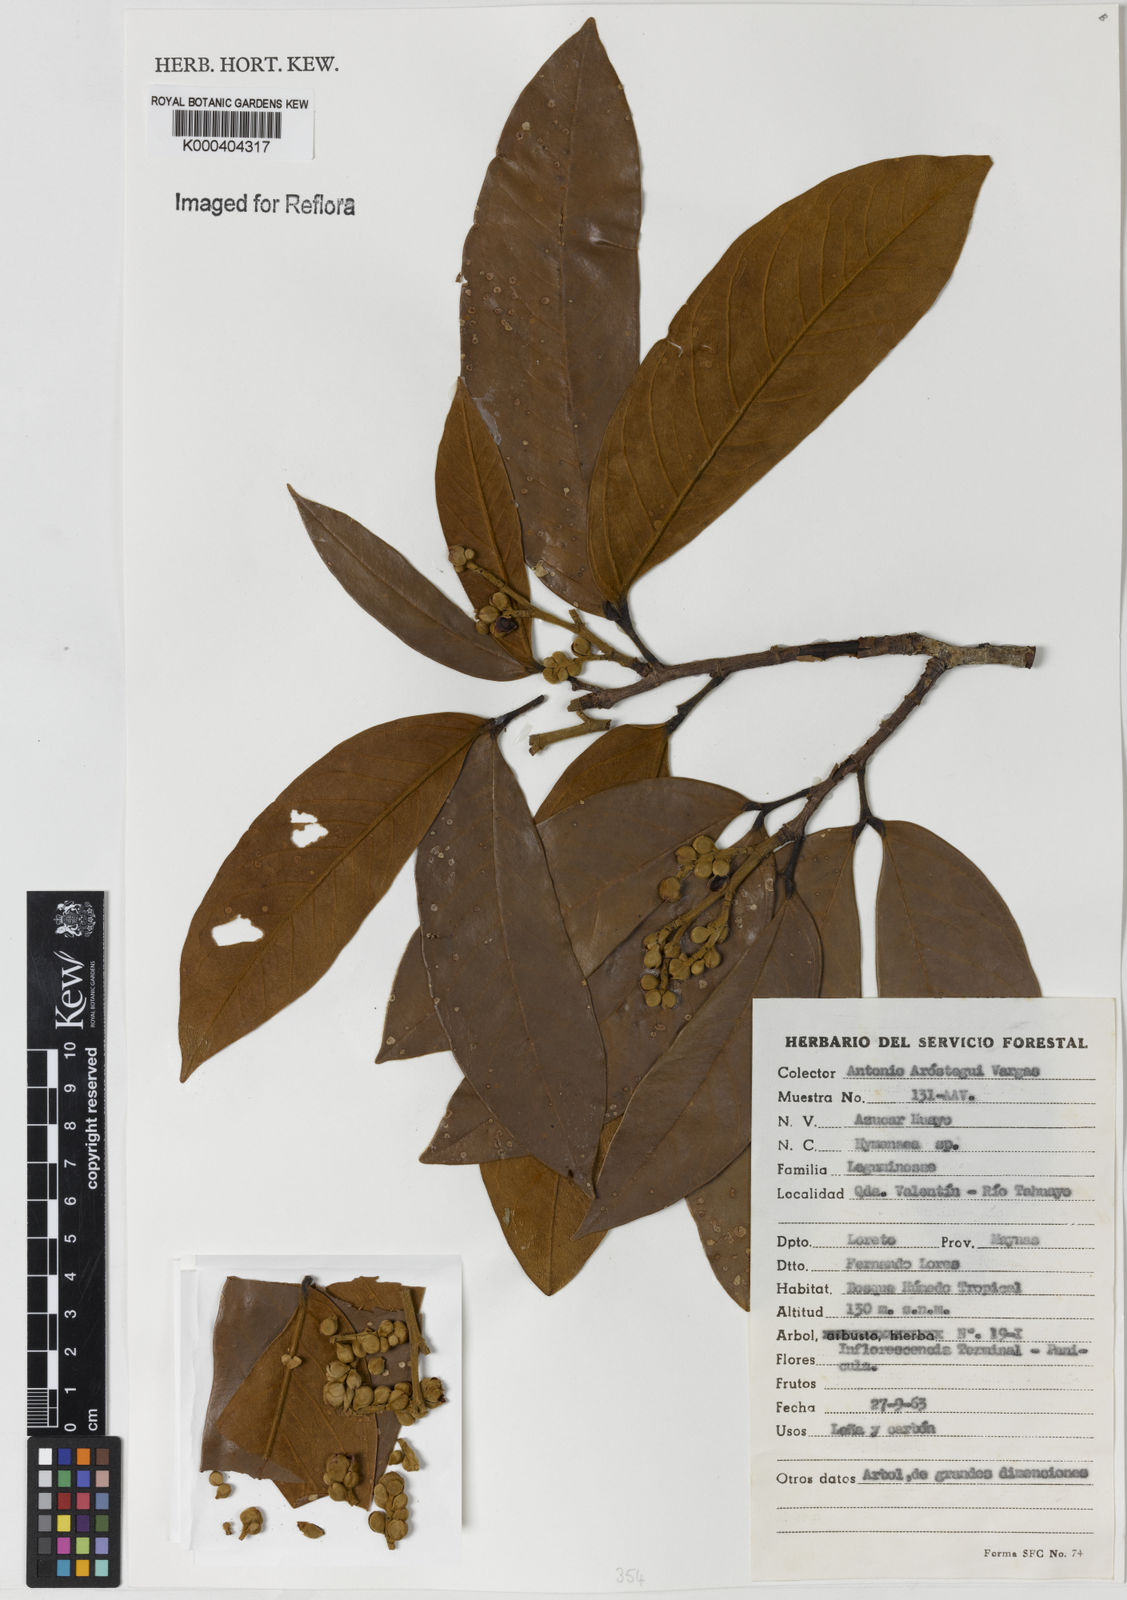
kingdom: Plantae
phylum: Tracheophyta
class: Magnoliopsida
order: Fabales
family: Fabaceae
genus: Hymenaea
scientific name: Hymenaea
